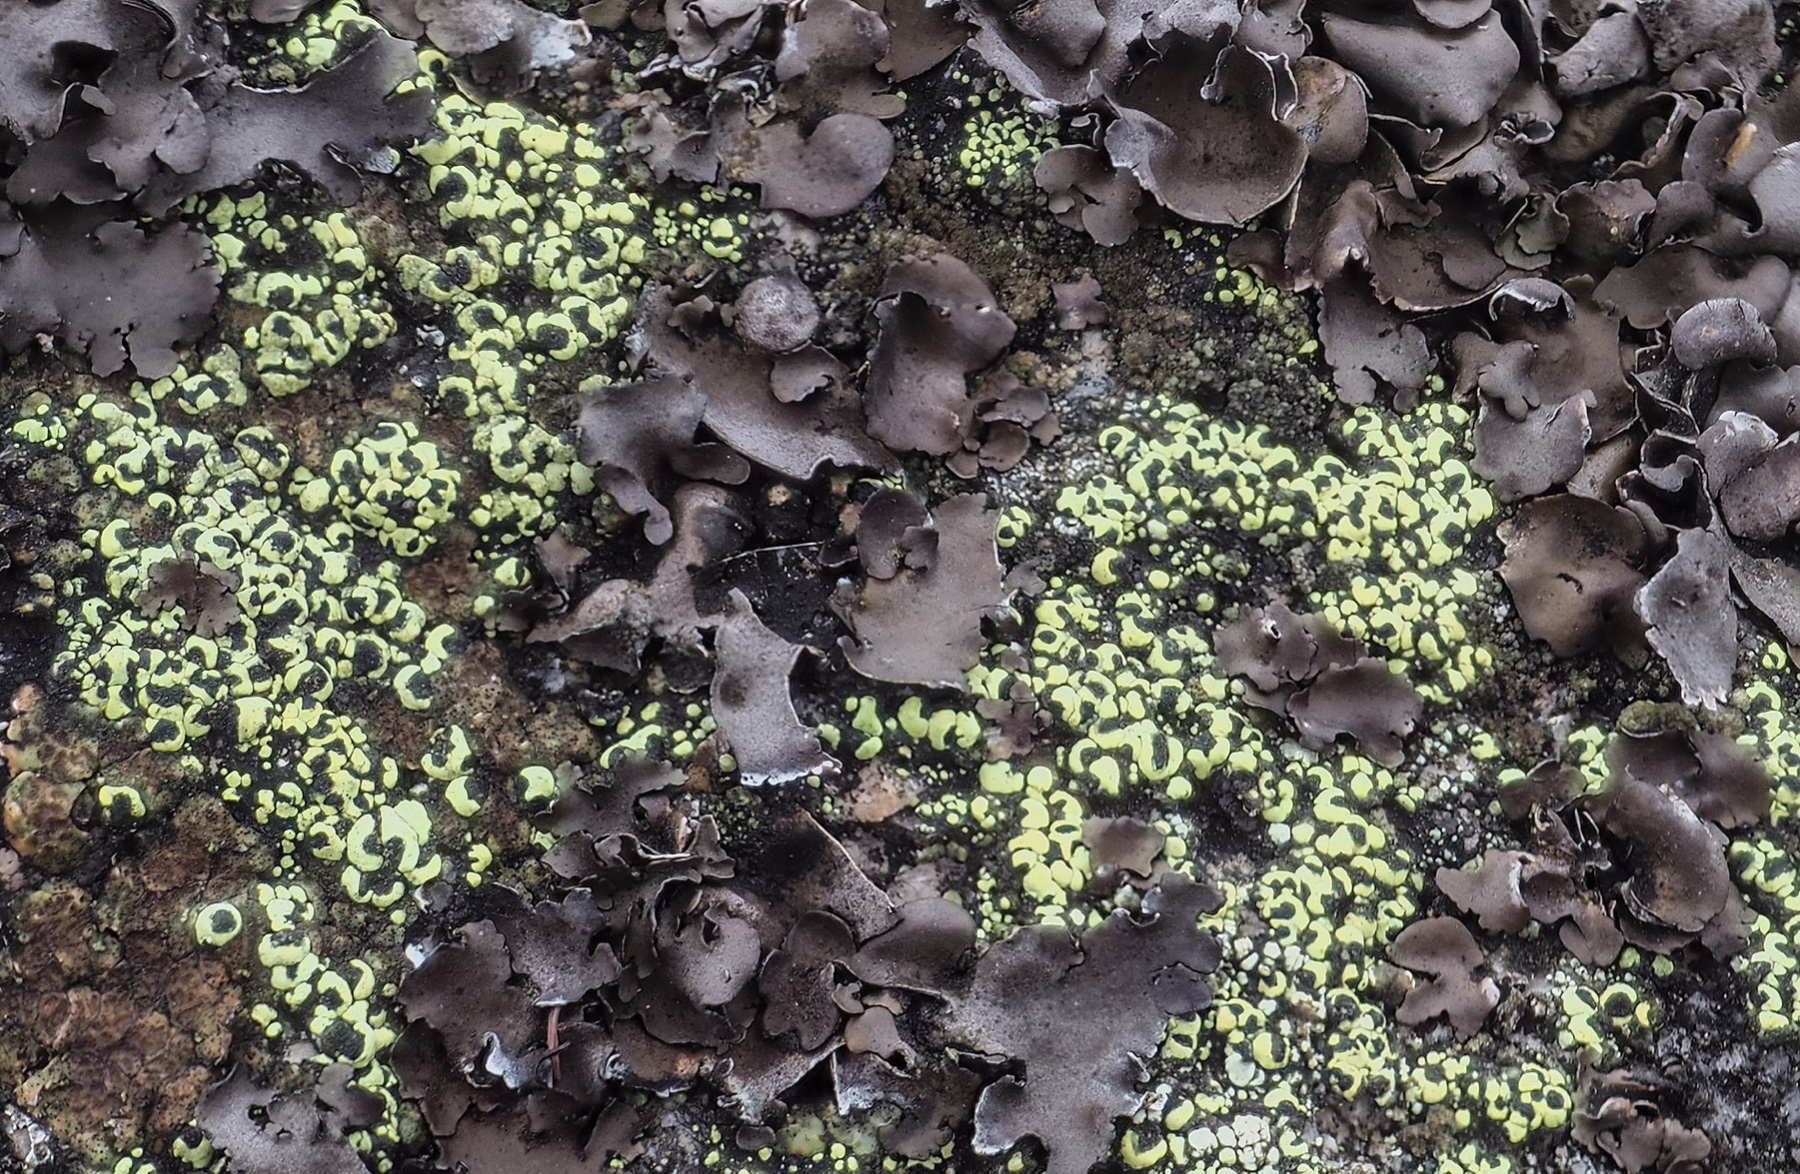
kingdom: Fungi
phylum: Ascomycota
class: Lecanoromycetes
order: Rhizocarpales
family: Rhizocarpaceae
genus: Rhizocarpon
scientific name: Rhizocarpon lecanorinum
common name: krave-landkortlav
